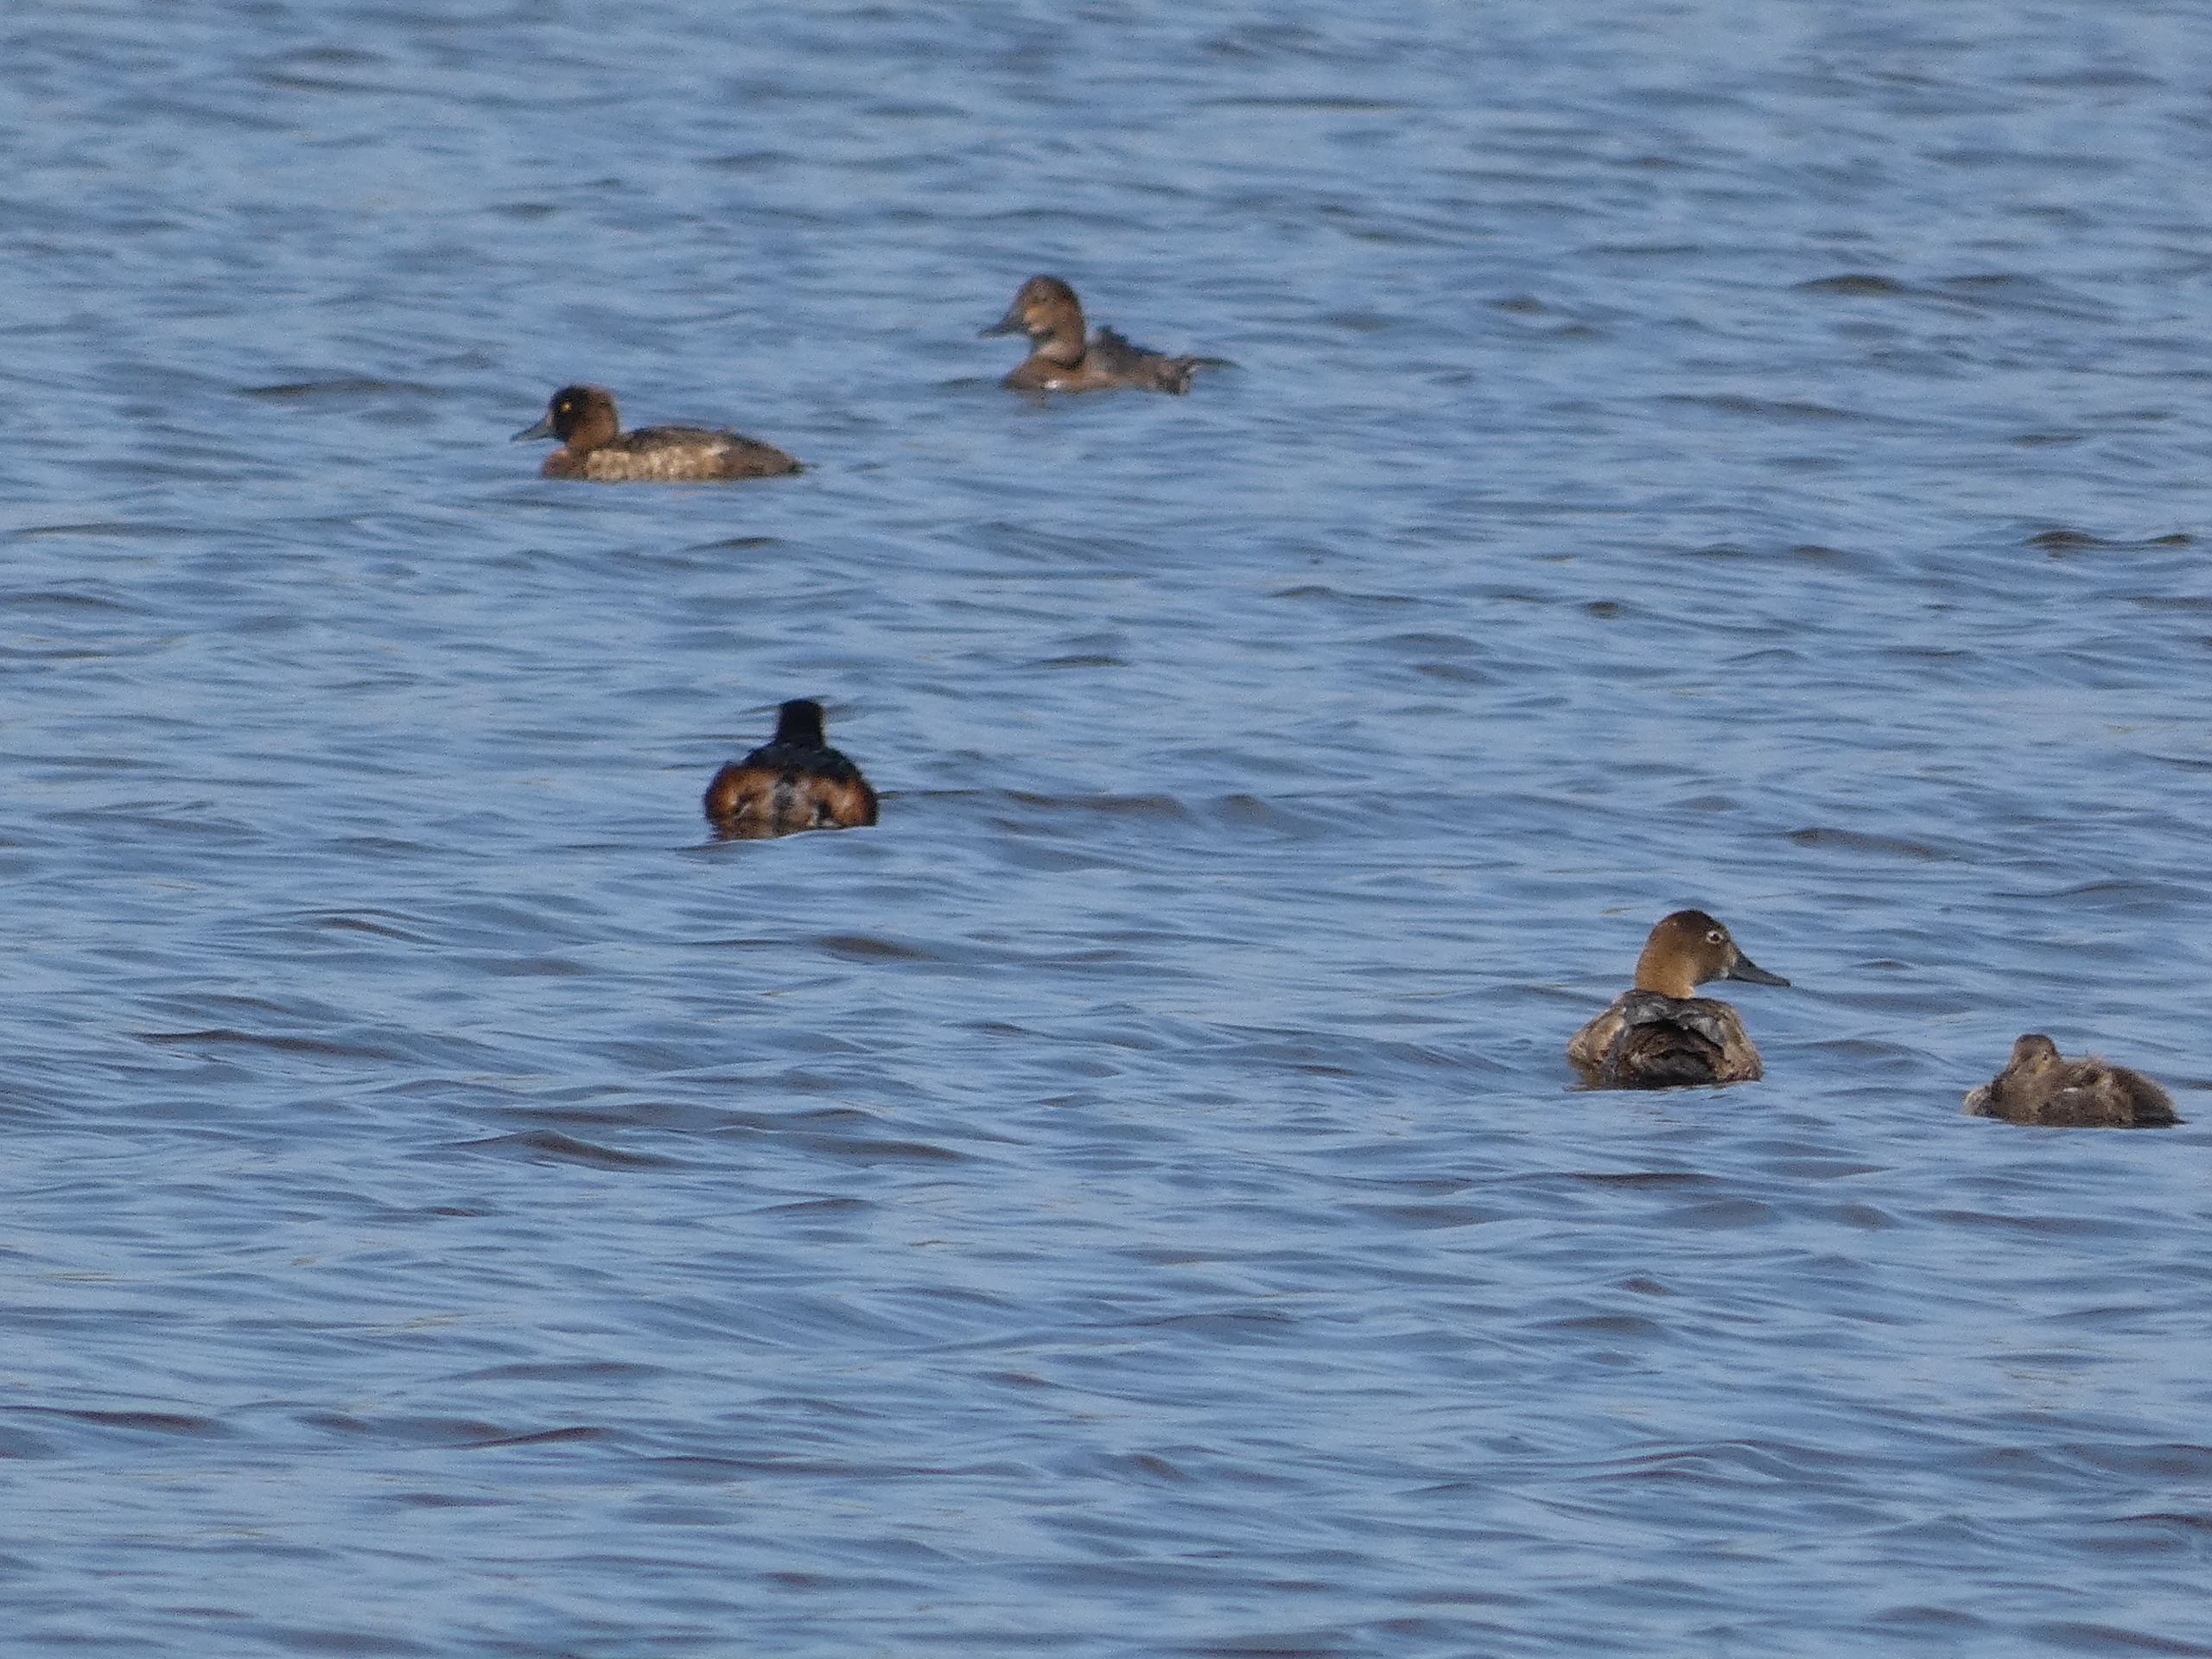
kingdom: Animalia
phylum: Chordata
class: Aves
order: Anseriformes
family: Anatidae
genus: Aythya
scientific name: Aythya ferina
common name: Taffeland
